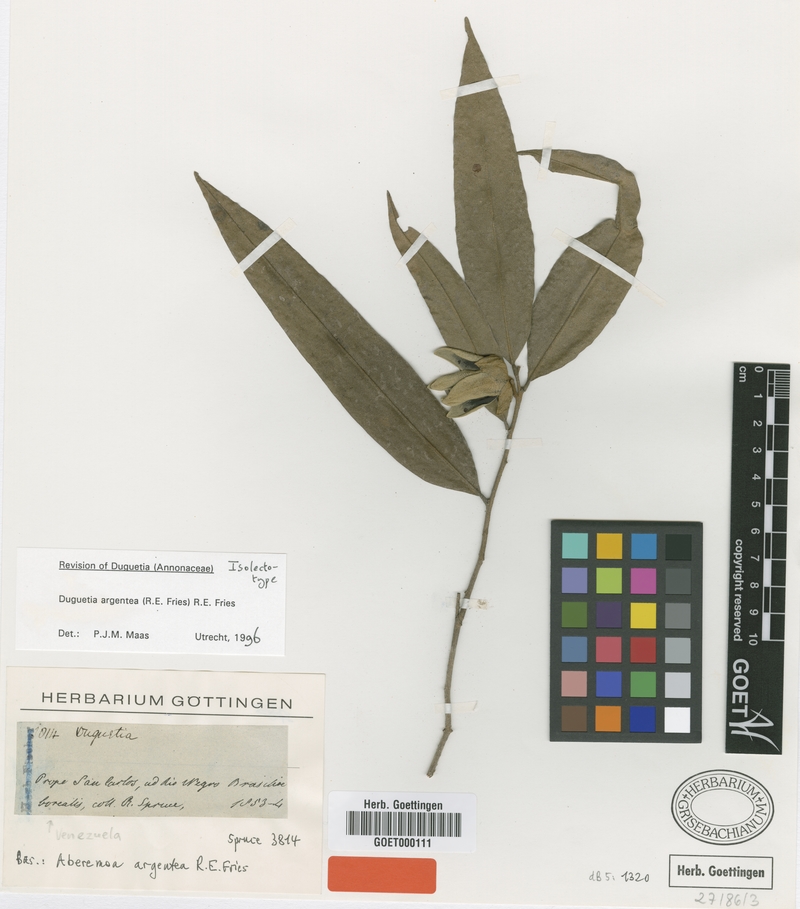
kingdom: Plantae
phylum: Tracheophyta
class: Magnoliopsida
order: Magnoliales
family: Annonaceae
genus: Duguetia
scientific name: Duguetia argentea
